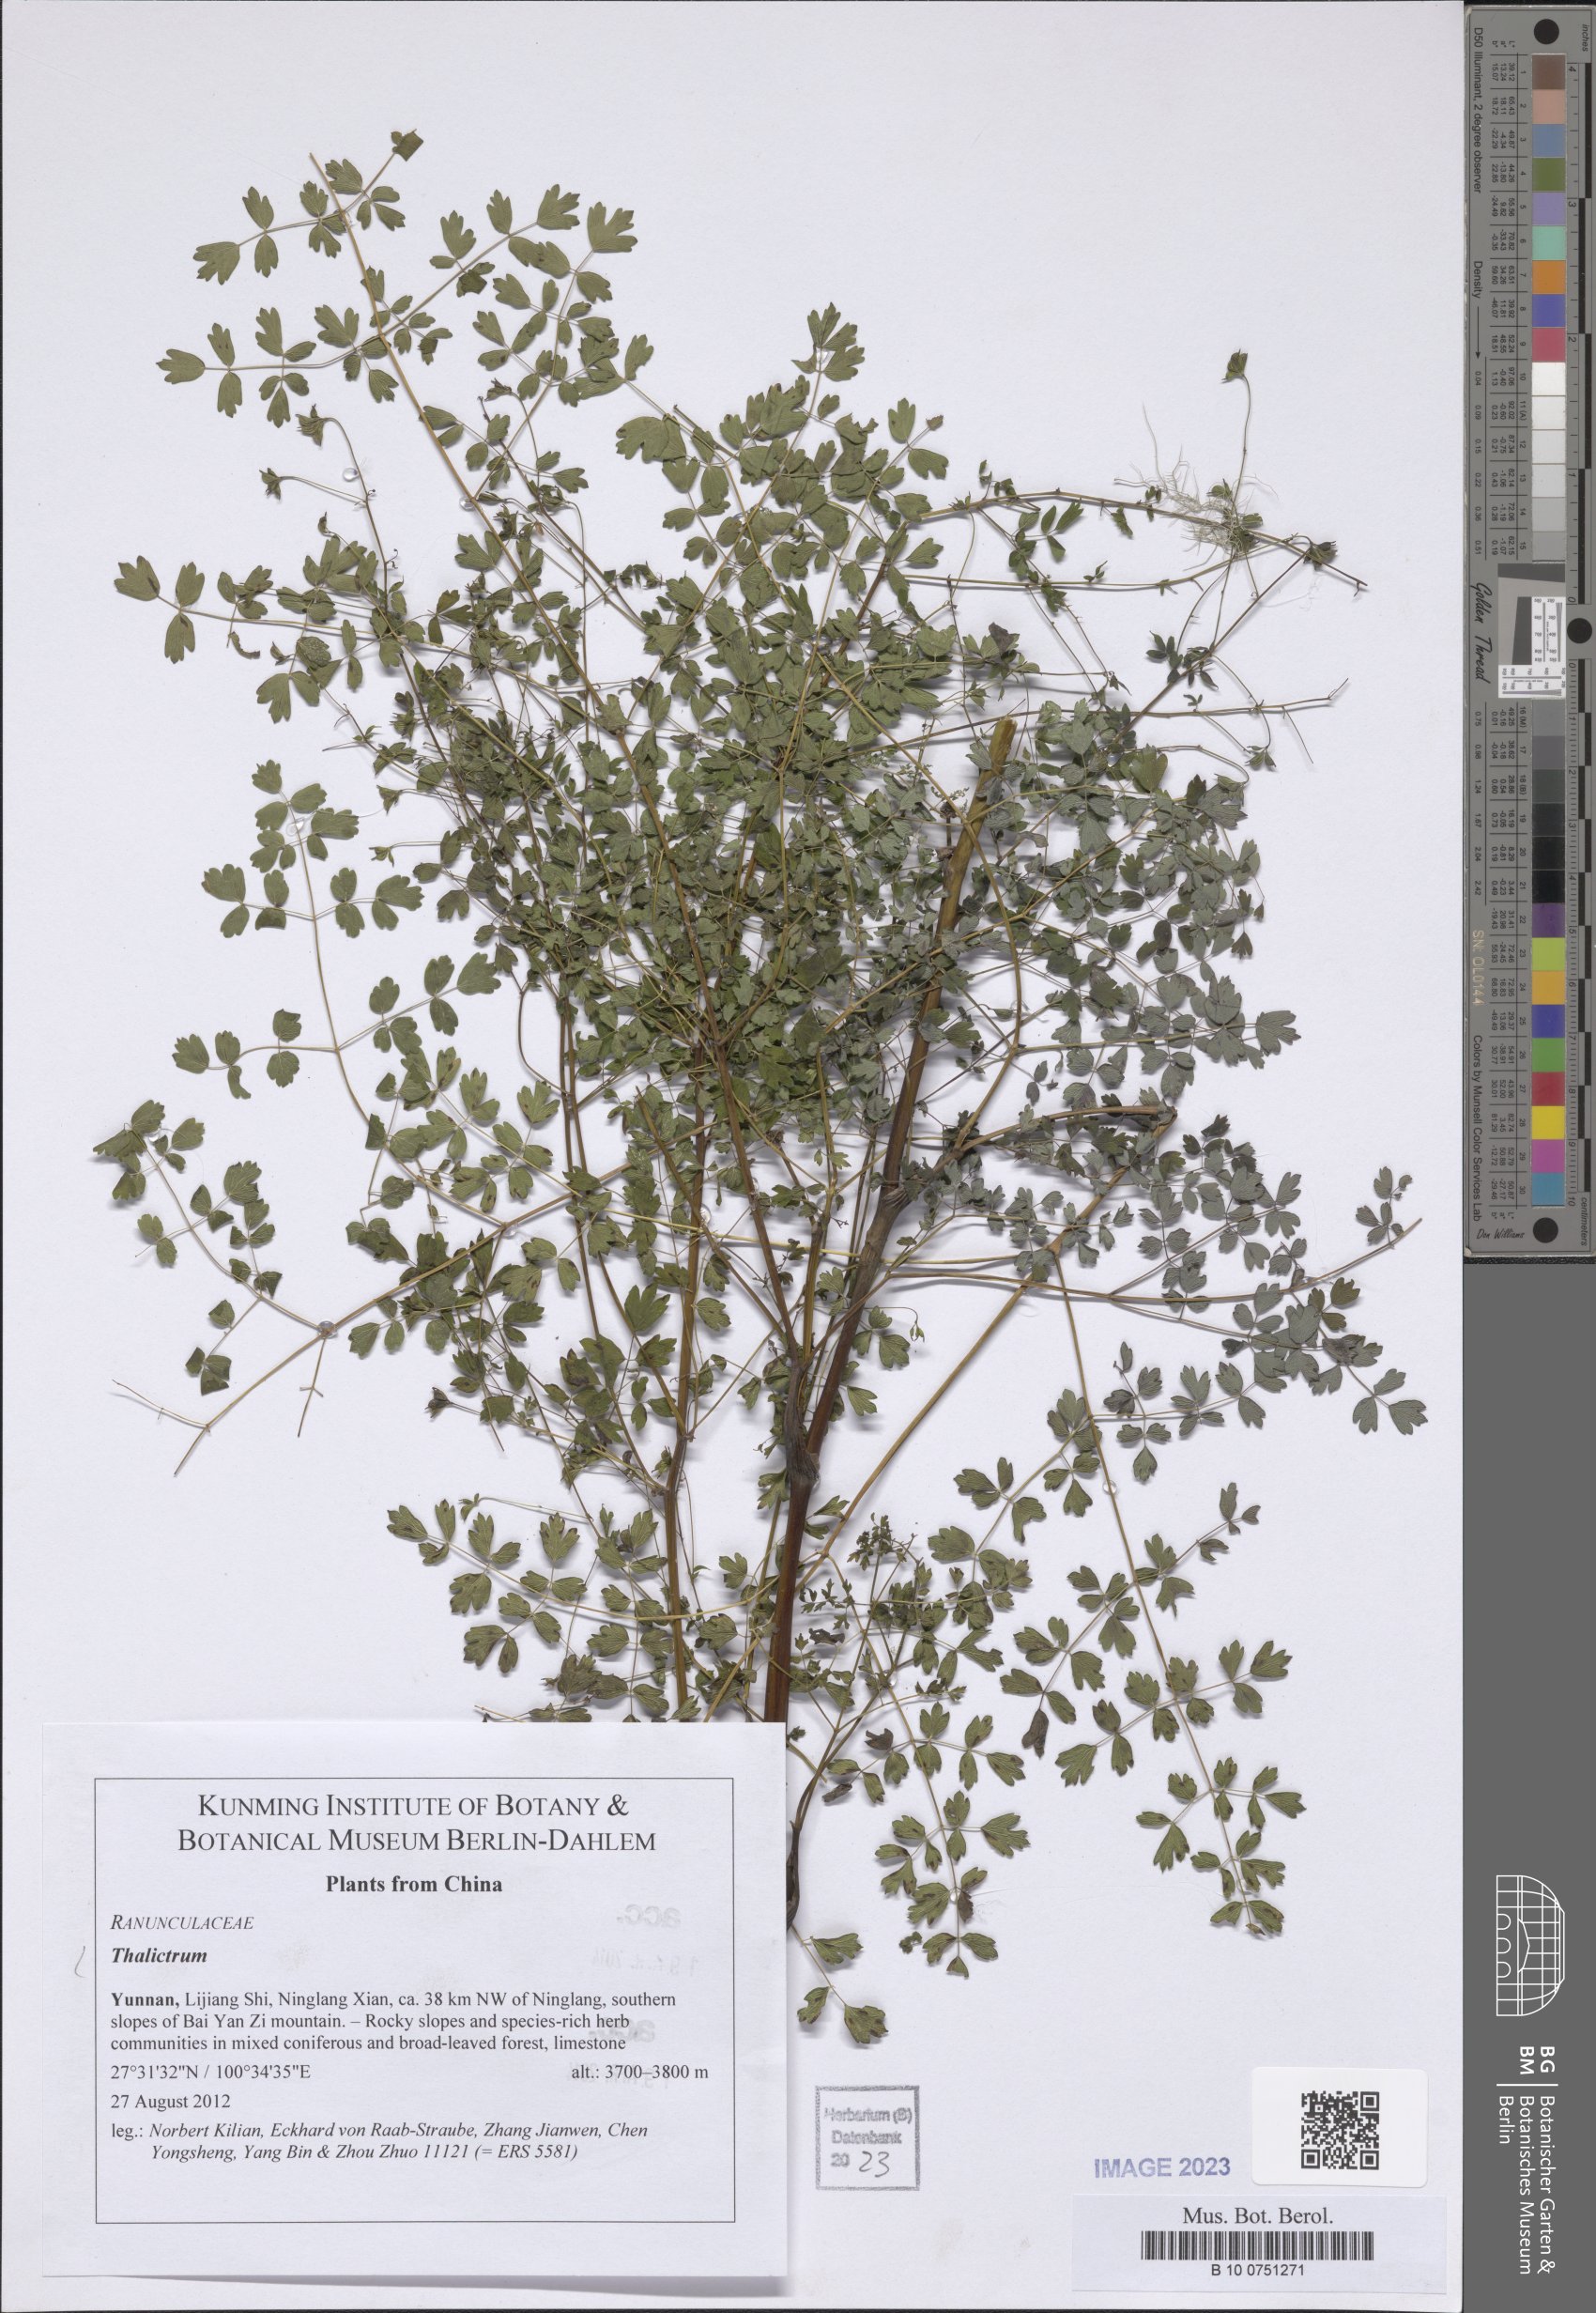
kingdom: Plantae
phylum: Tracheophyta
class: Magnoliopsida
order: Ranunculales
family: Ranunculaceae
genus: Thalictrum
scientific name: Thalictrum
